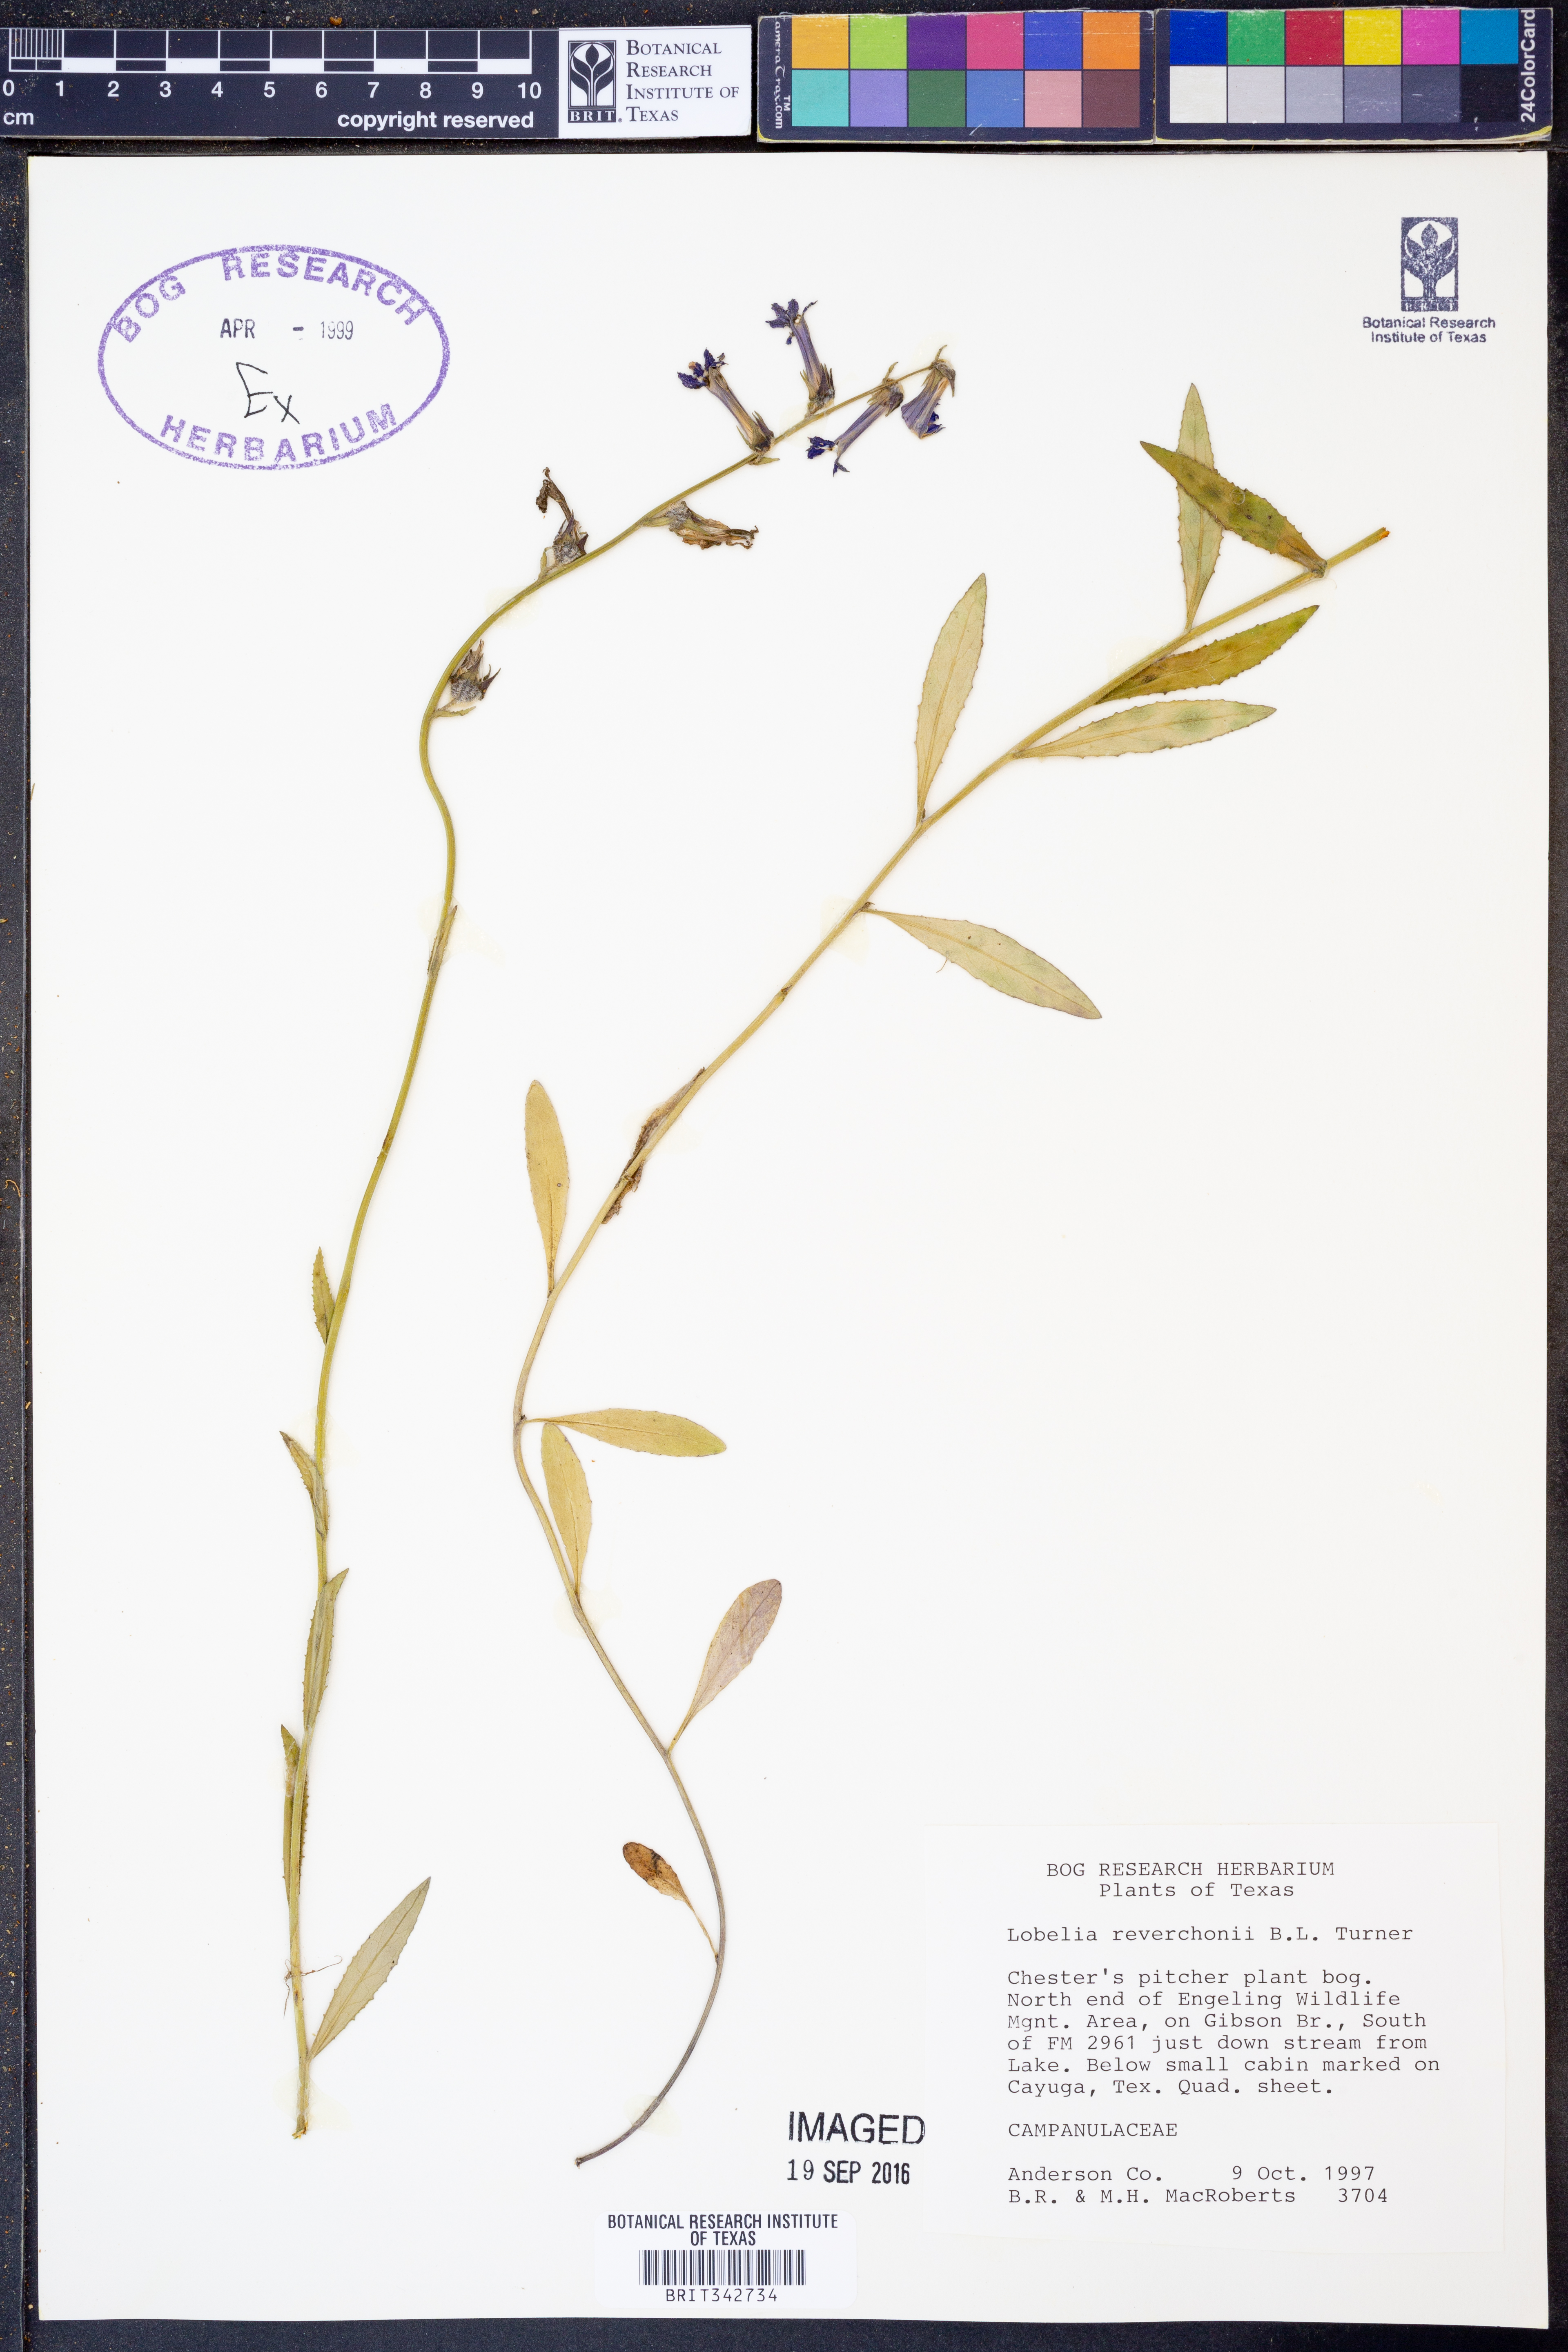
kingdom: Plantae
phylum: Tracheophyta
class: Magnoliopsida
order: Asterales
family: Campanulaceae
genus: Lobelia
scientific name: Lobelia reverchonii
